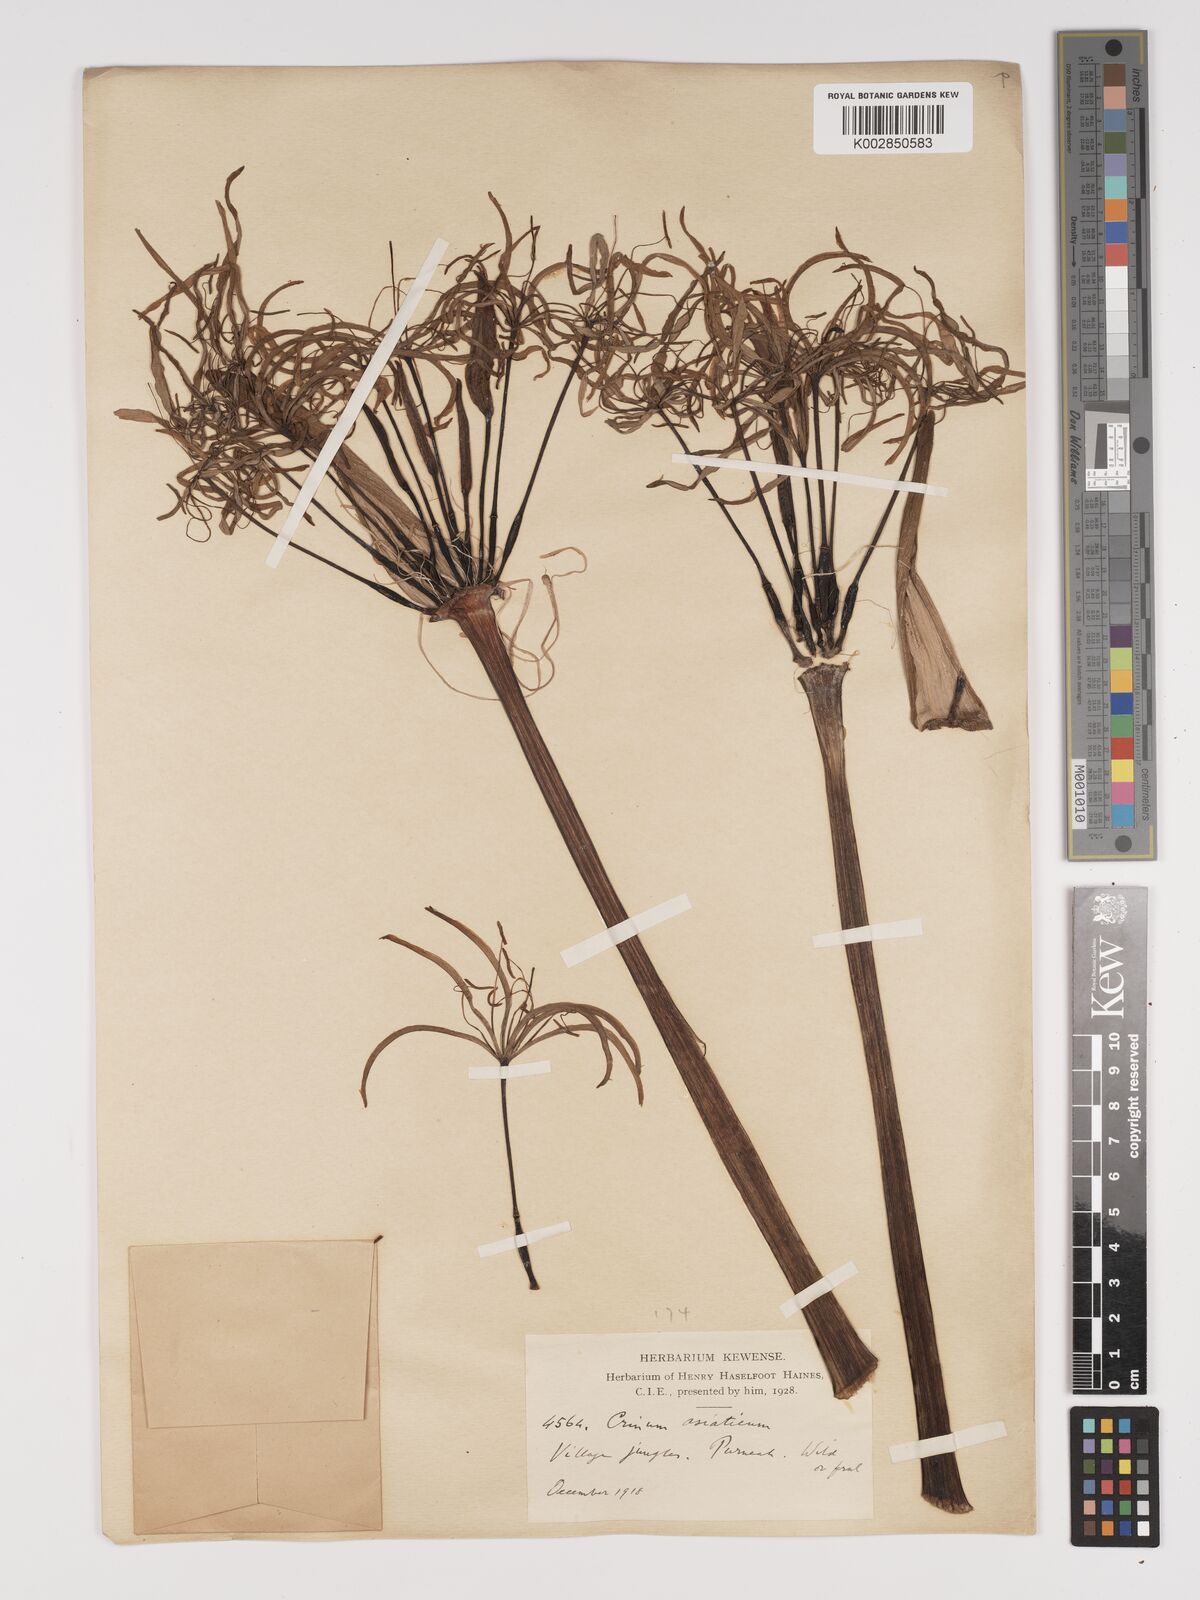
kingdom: Plantae
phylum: Tracheophyta
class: Liliopsida
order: Asparagales
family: Amaryllidaceae
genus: Crinum
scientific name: Crinum asiaticum
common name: Poisonbulb
